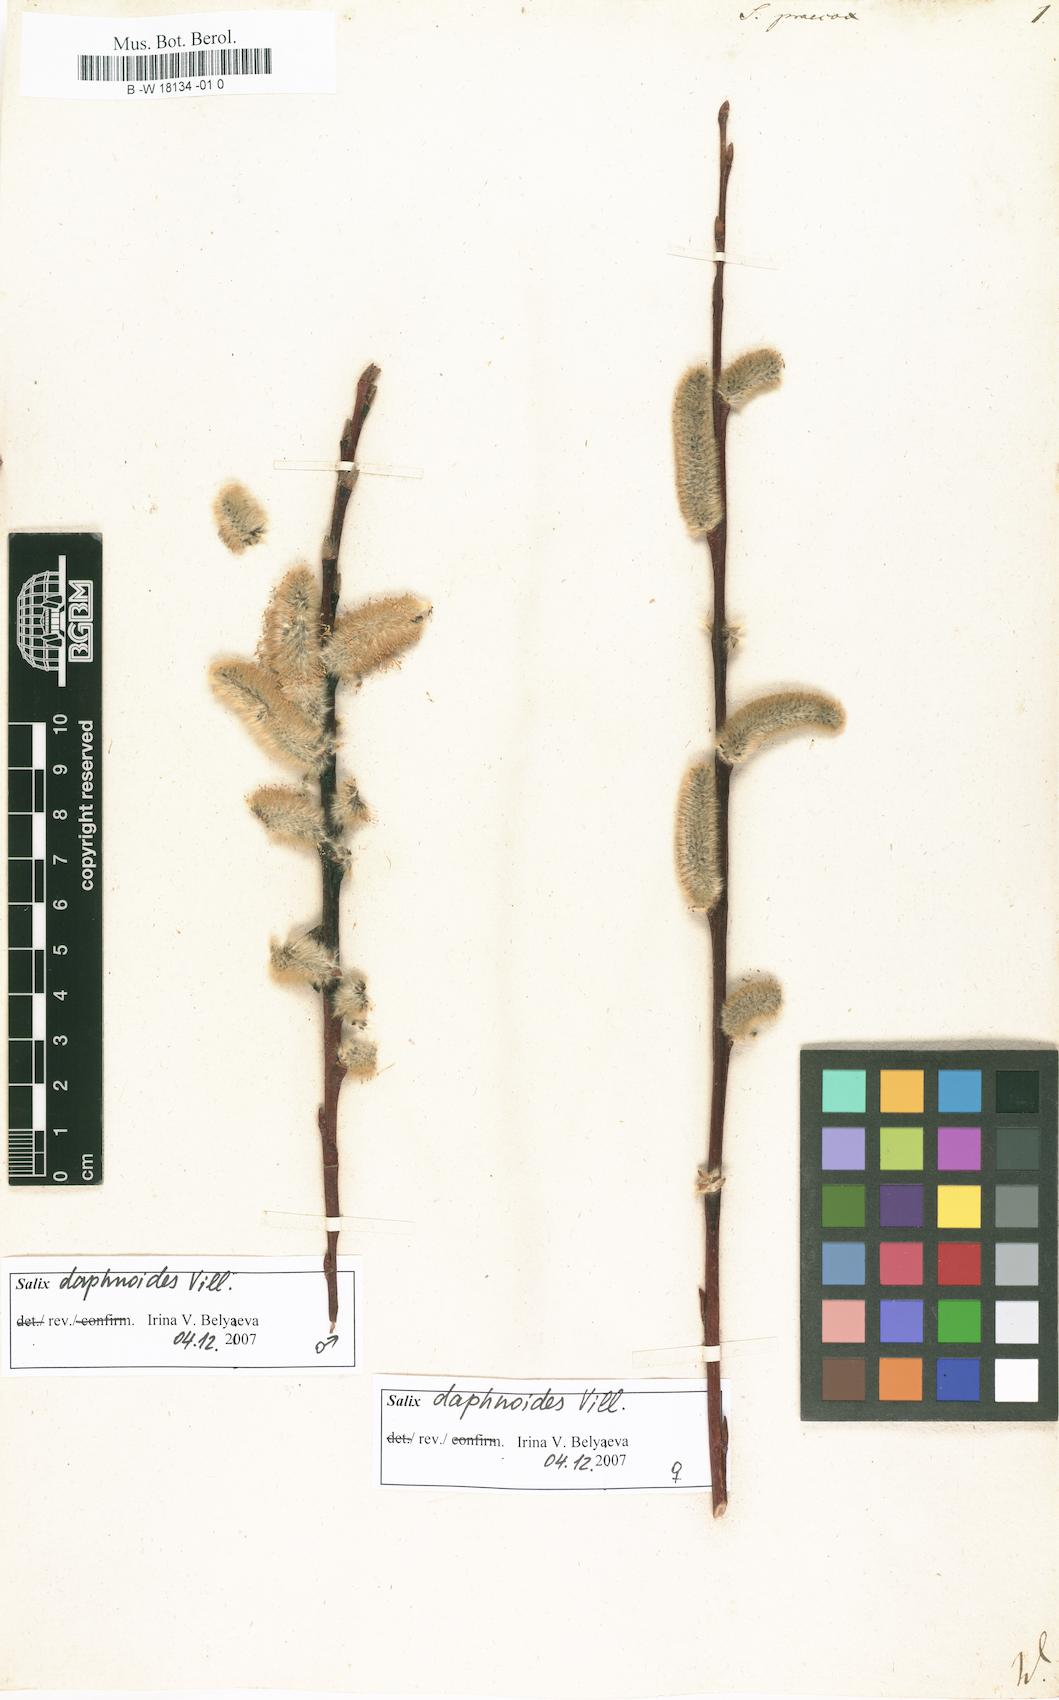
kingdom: Plantae
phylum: Tracheophyta
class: Magnoliopsida
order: Malpighiales
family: Salicaceae
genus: Salix
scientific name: Salix caprea
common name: Goat willow
